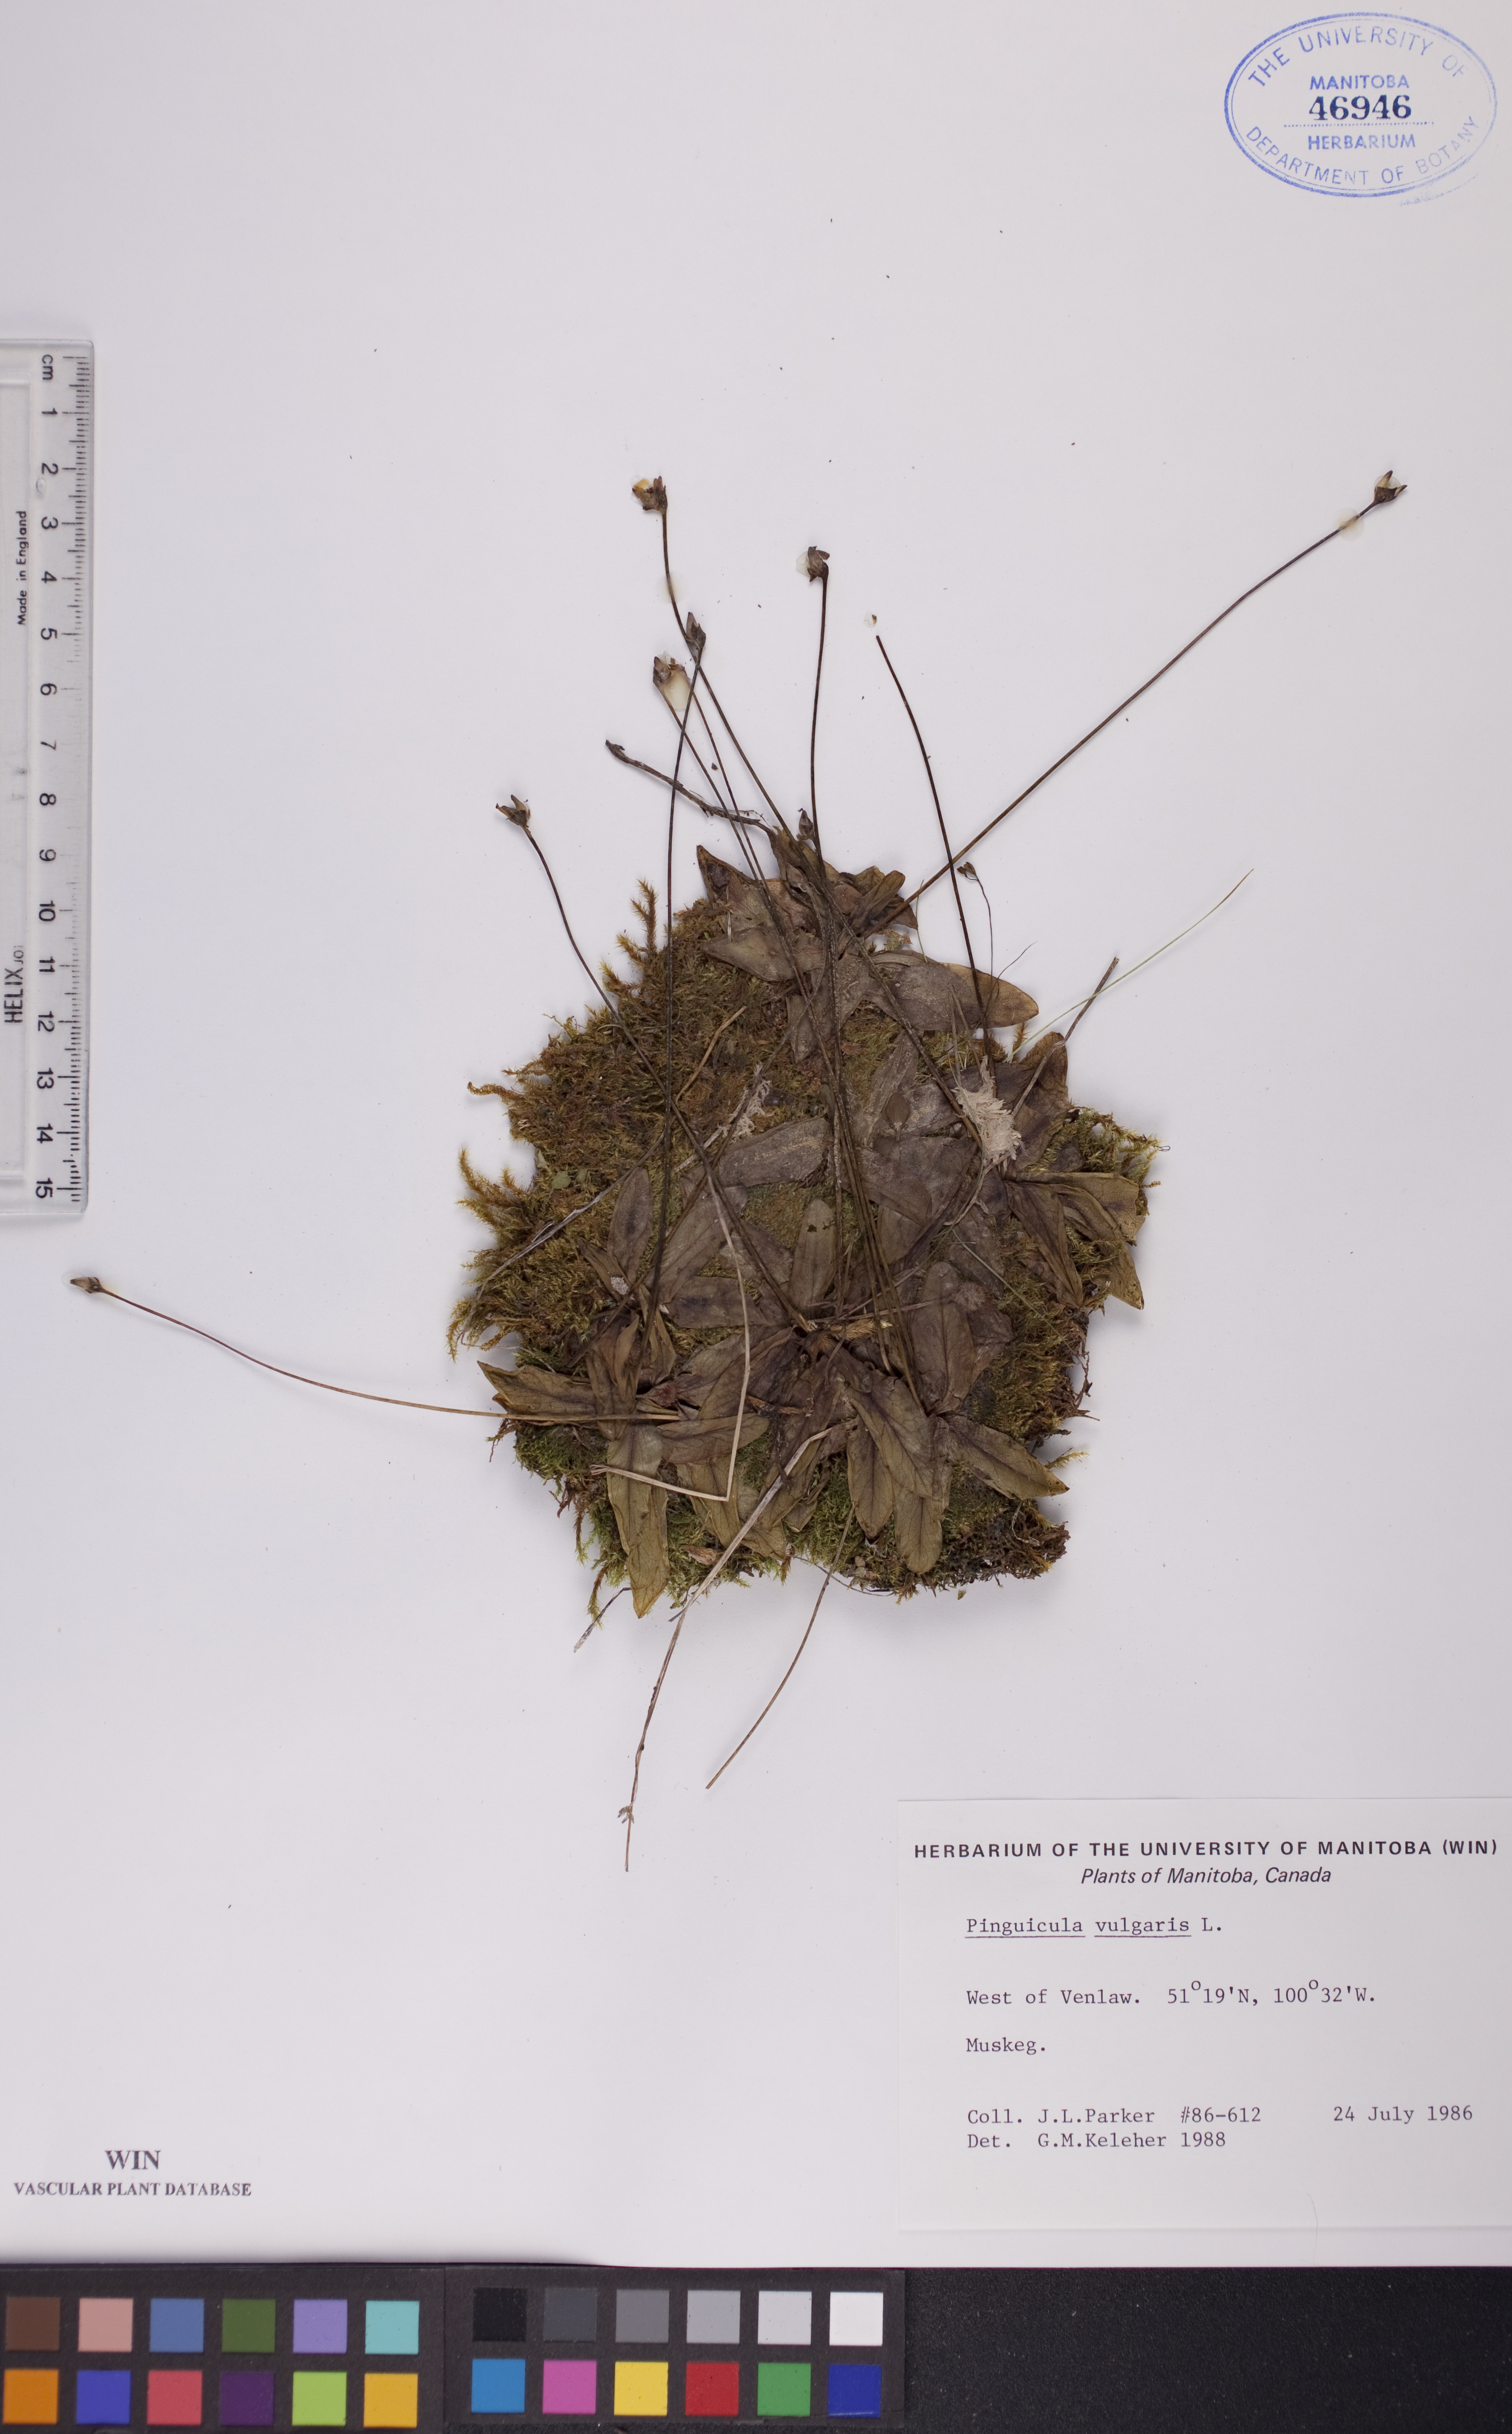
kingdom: Plantae
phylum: Tracheophyta
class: Magnoliopsida
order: Lamiales
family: Lentibulariaceae
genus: Pinguicula
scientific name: Pinguicula vulgaris
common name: Common butterwort
